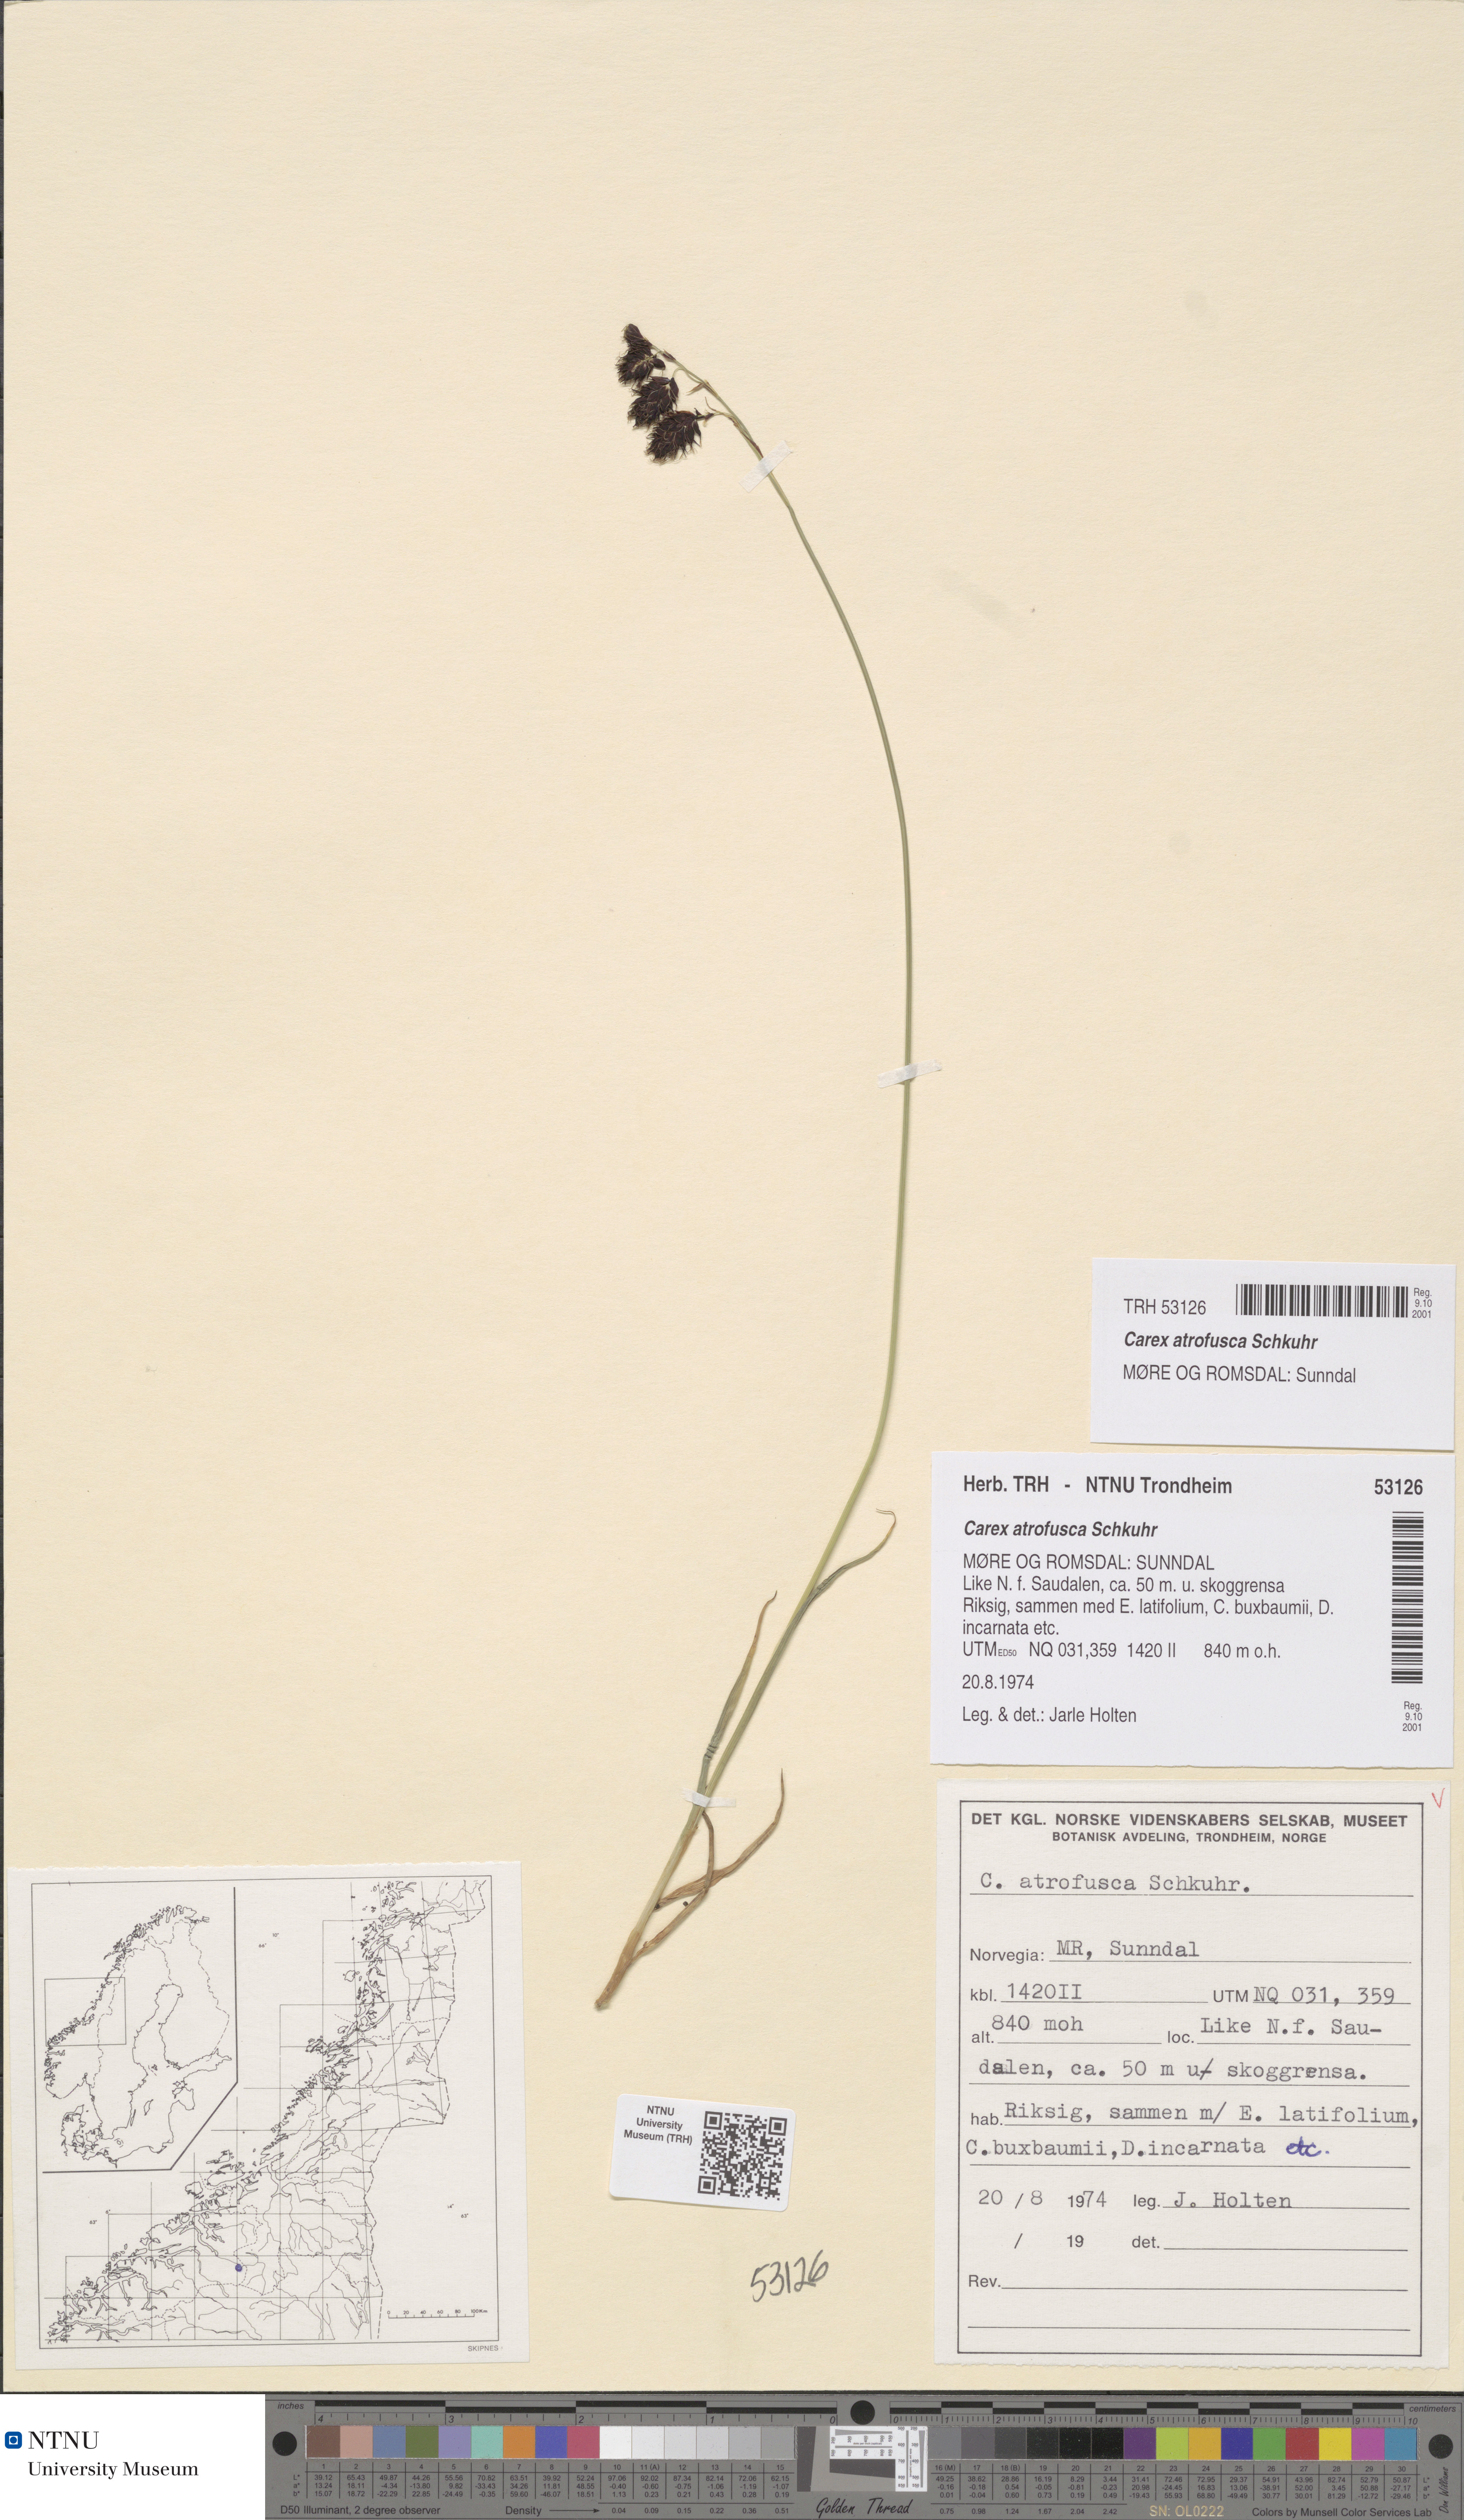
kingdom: Plantae
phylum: Tracheophyta
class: Liliopsida
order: Poales
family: Cyperaceae
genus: Carex
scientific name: Carex atrofusca
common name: Scorched alpine-sedge
